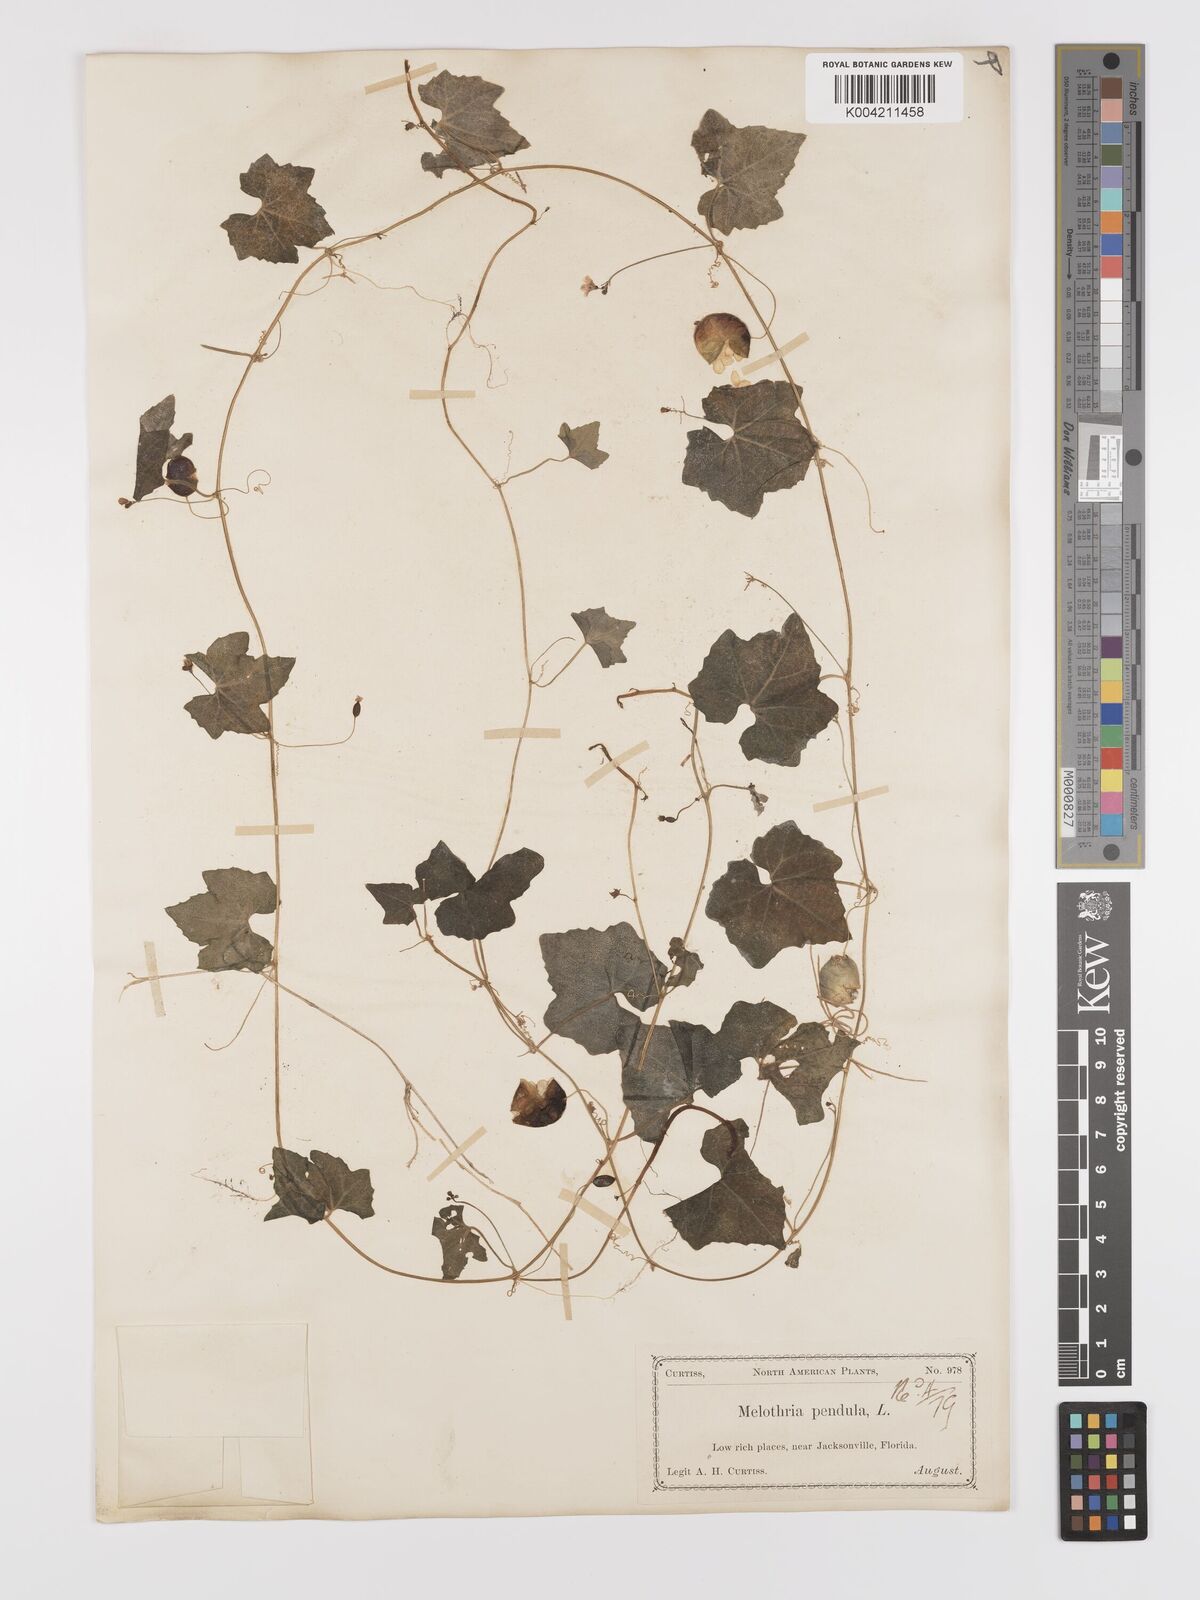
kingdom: Plantae
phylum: Tracheophyta
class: Magnoliopsida
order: Cucurbitales
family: Cucurbitaceae
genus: Melothria
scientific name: Melothria pendula
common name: Creeping-cucumber
